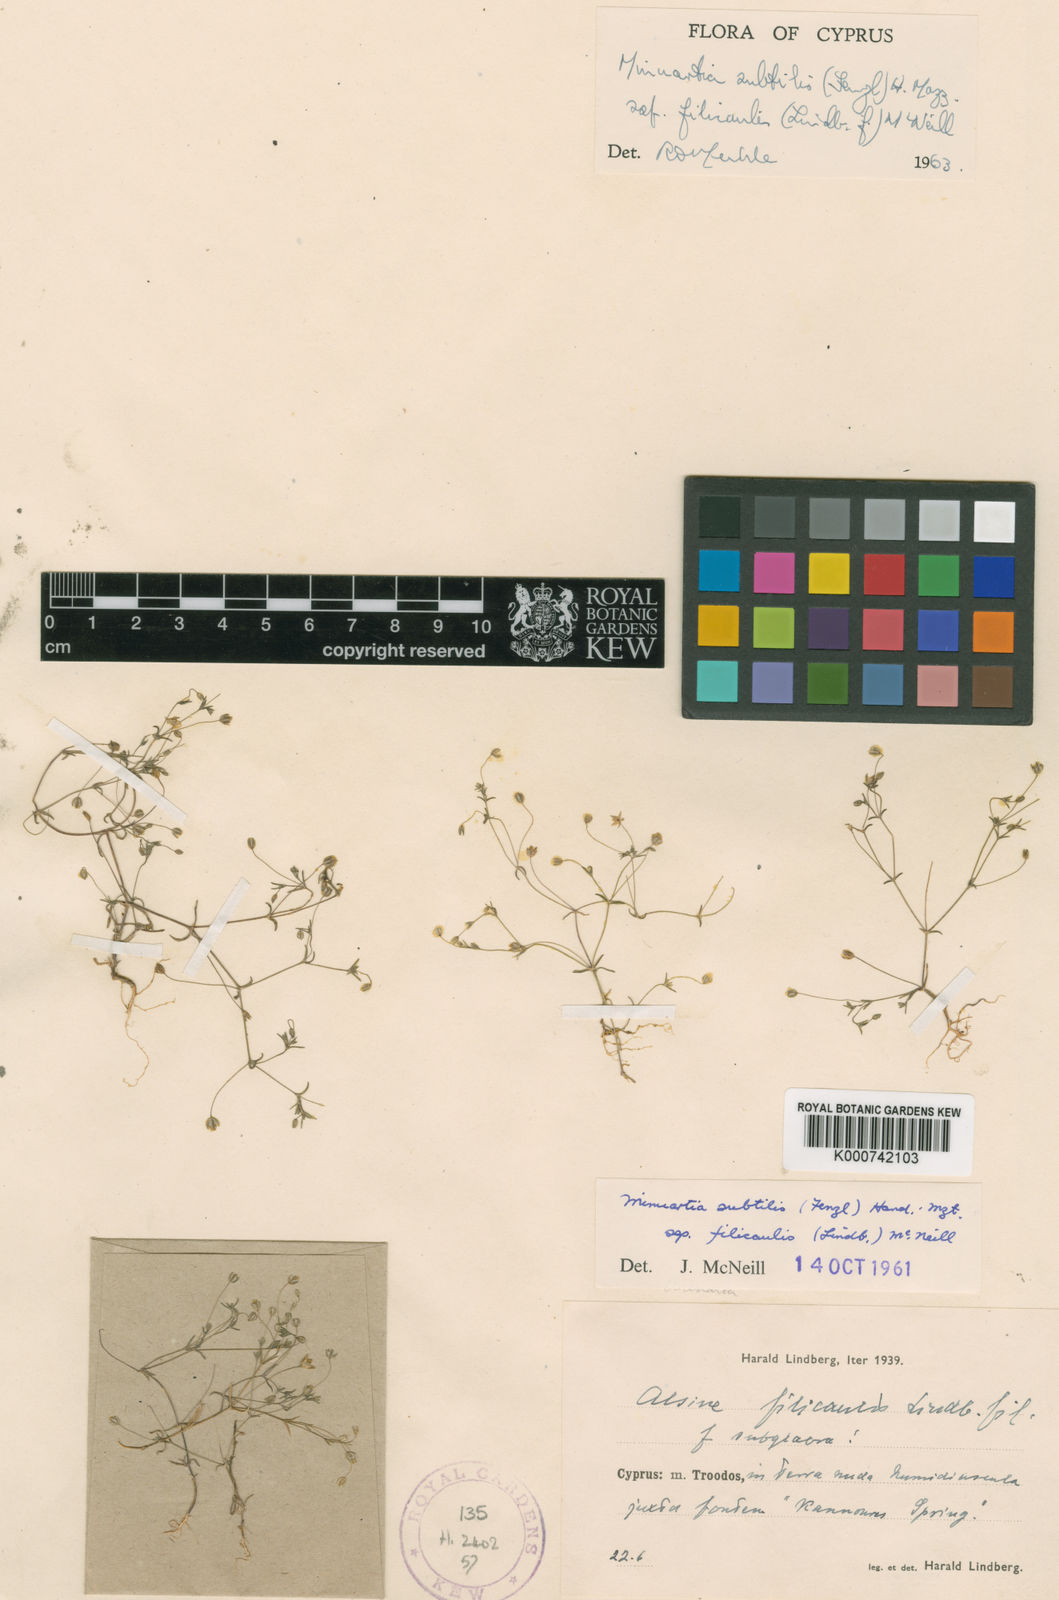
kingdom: Plantae
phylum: Tracheophyta
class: Magnoliopsida
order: Caryophyllales
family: Caryophyllaceae
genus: Sabulina
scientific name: Sabulina subtilis
